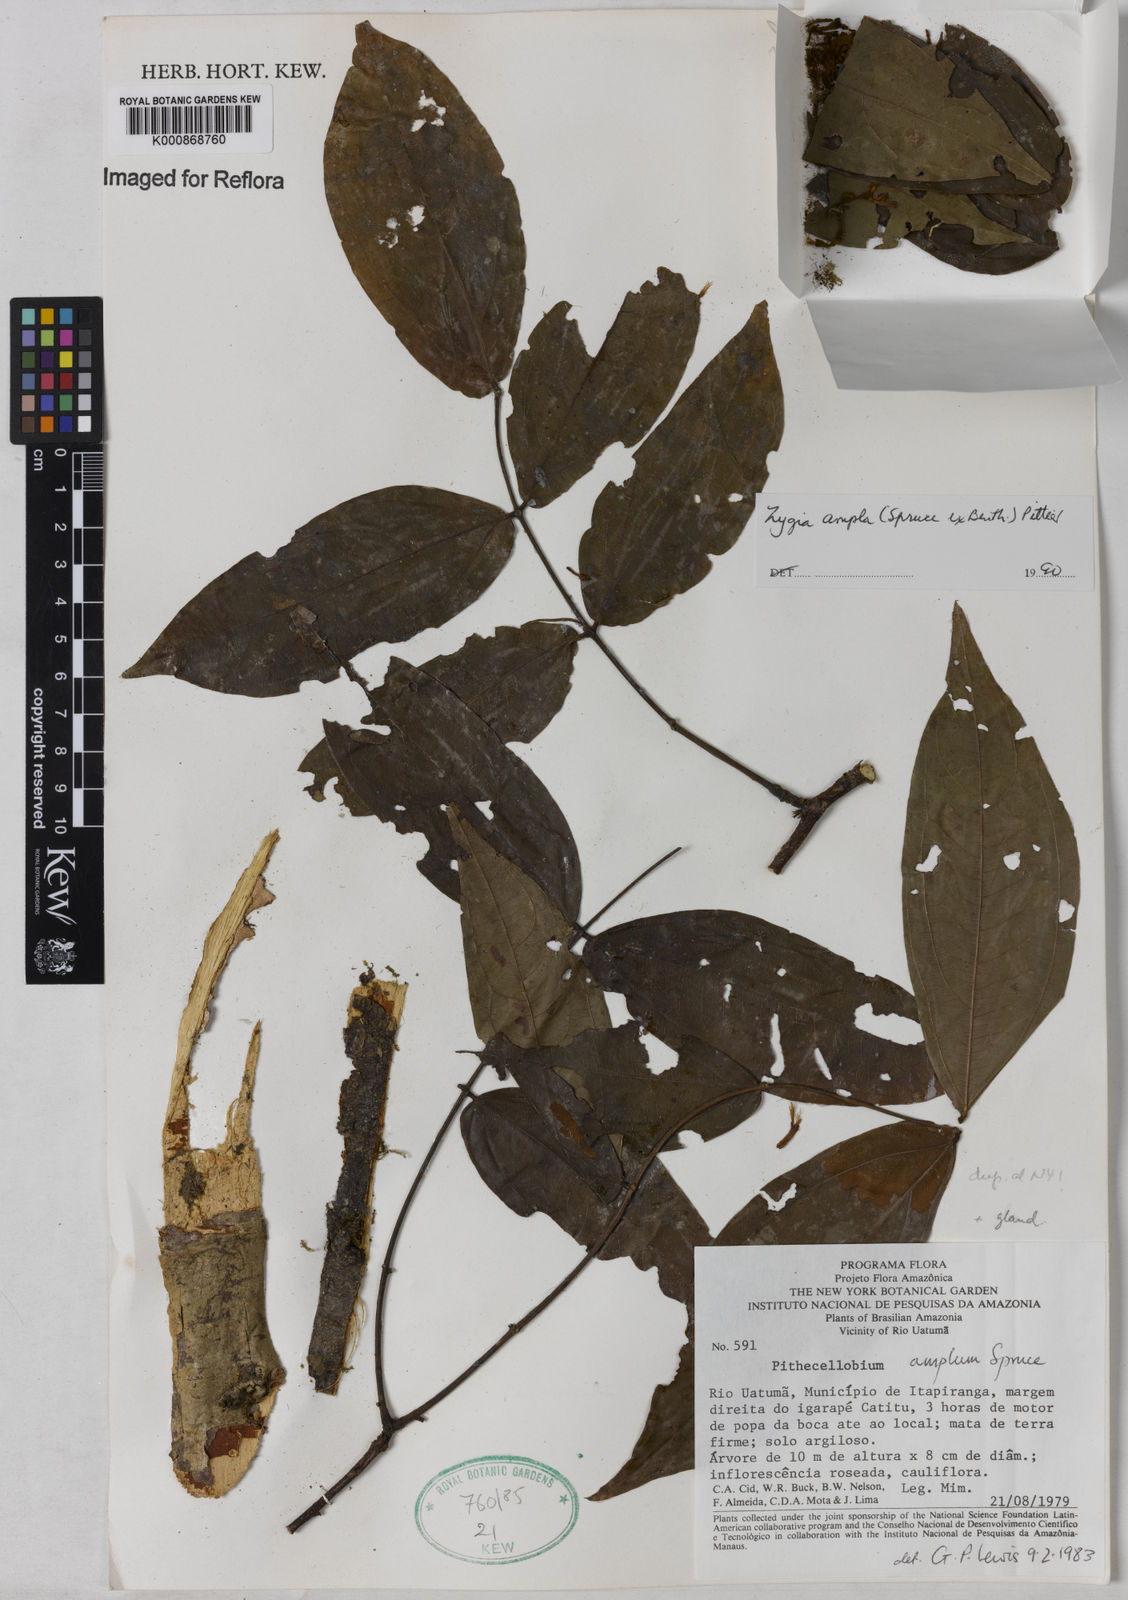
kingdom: Plantae
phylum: Tracheophyta
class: Magnoliopsida
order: Fabales
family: Fabaceae
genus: Zygia
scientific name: Zygia ampla
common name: Jarendeua de sapo
